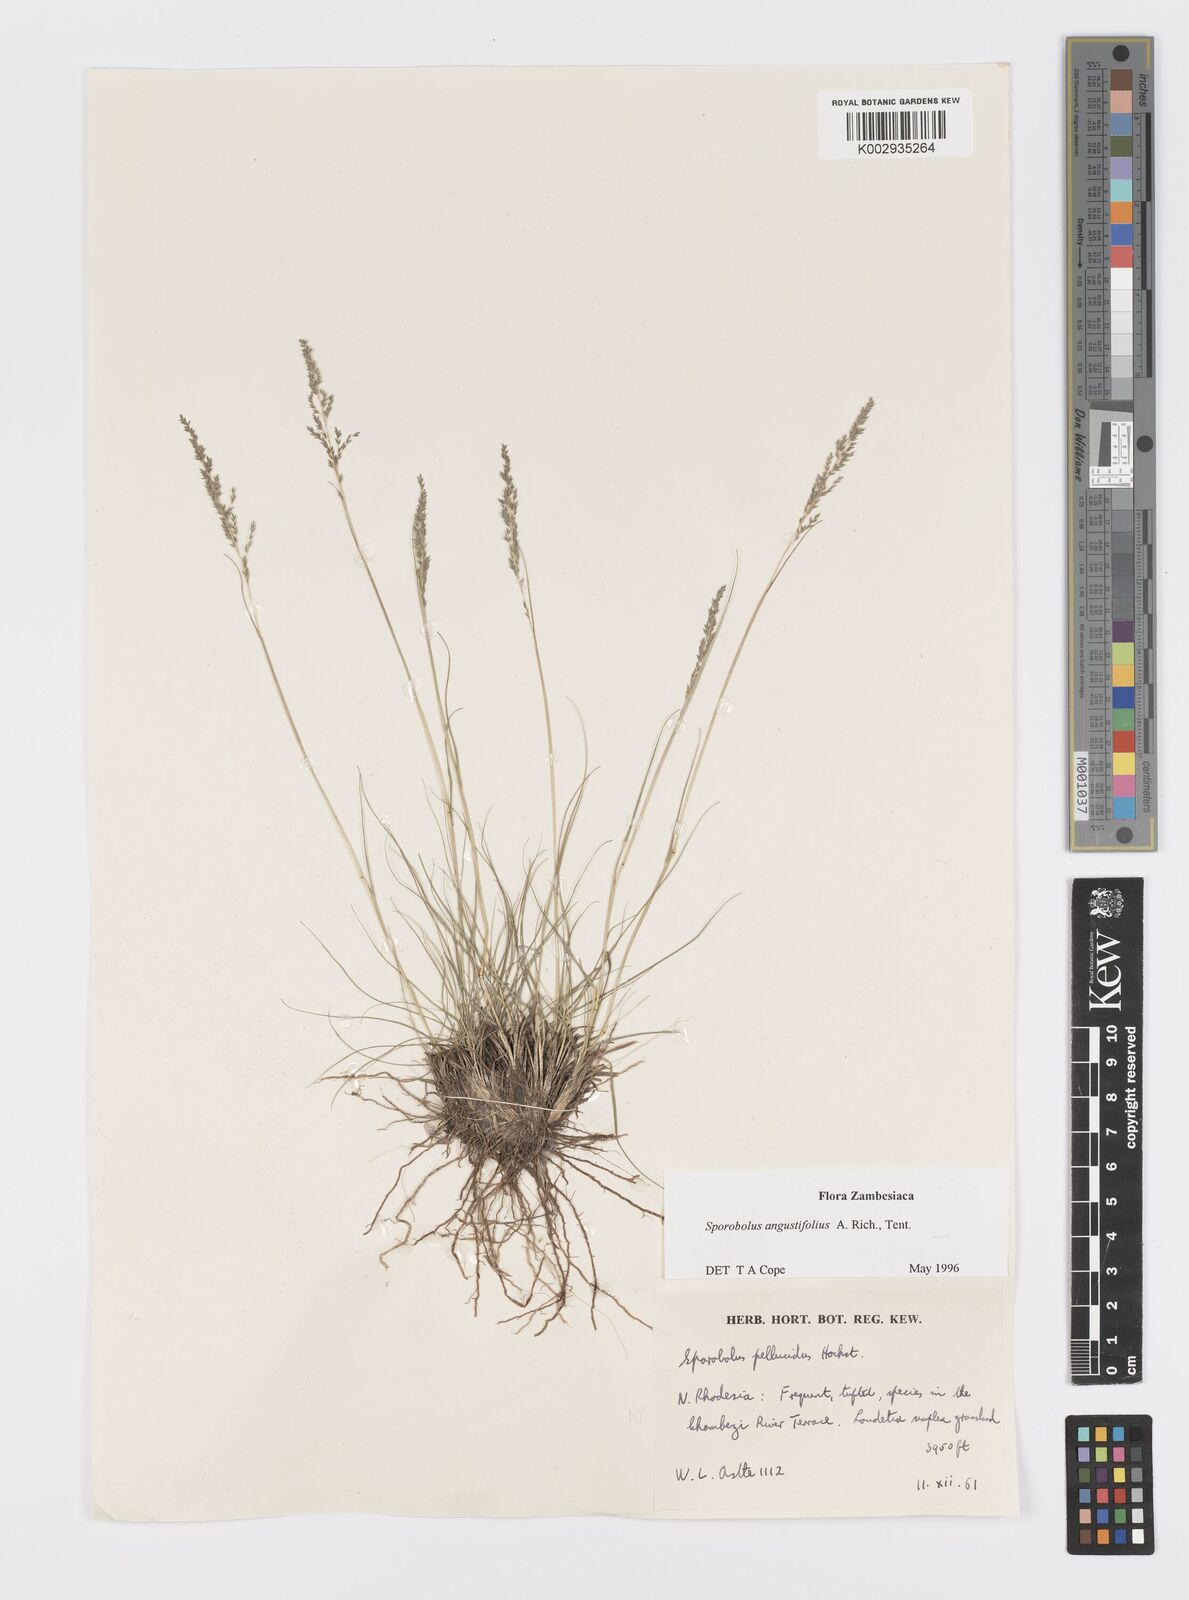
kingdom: Plantae
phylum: Tracheophyta
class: Liliopsida
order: Poales
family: Poaceae
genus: Sporobolus
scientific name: Sporobolus angustifolius
